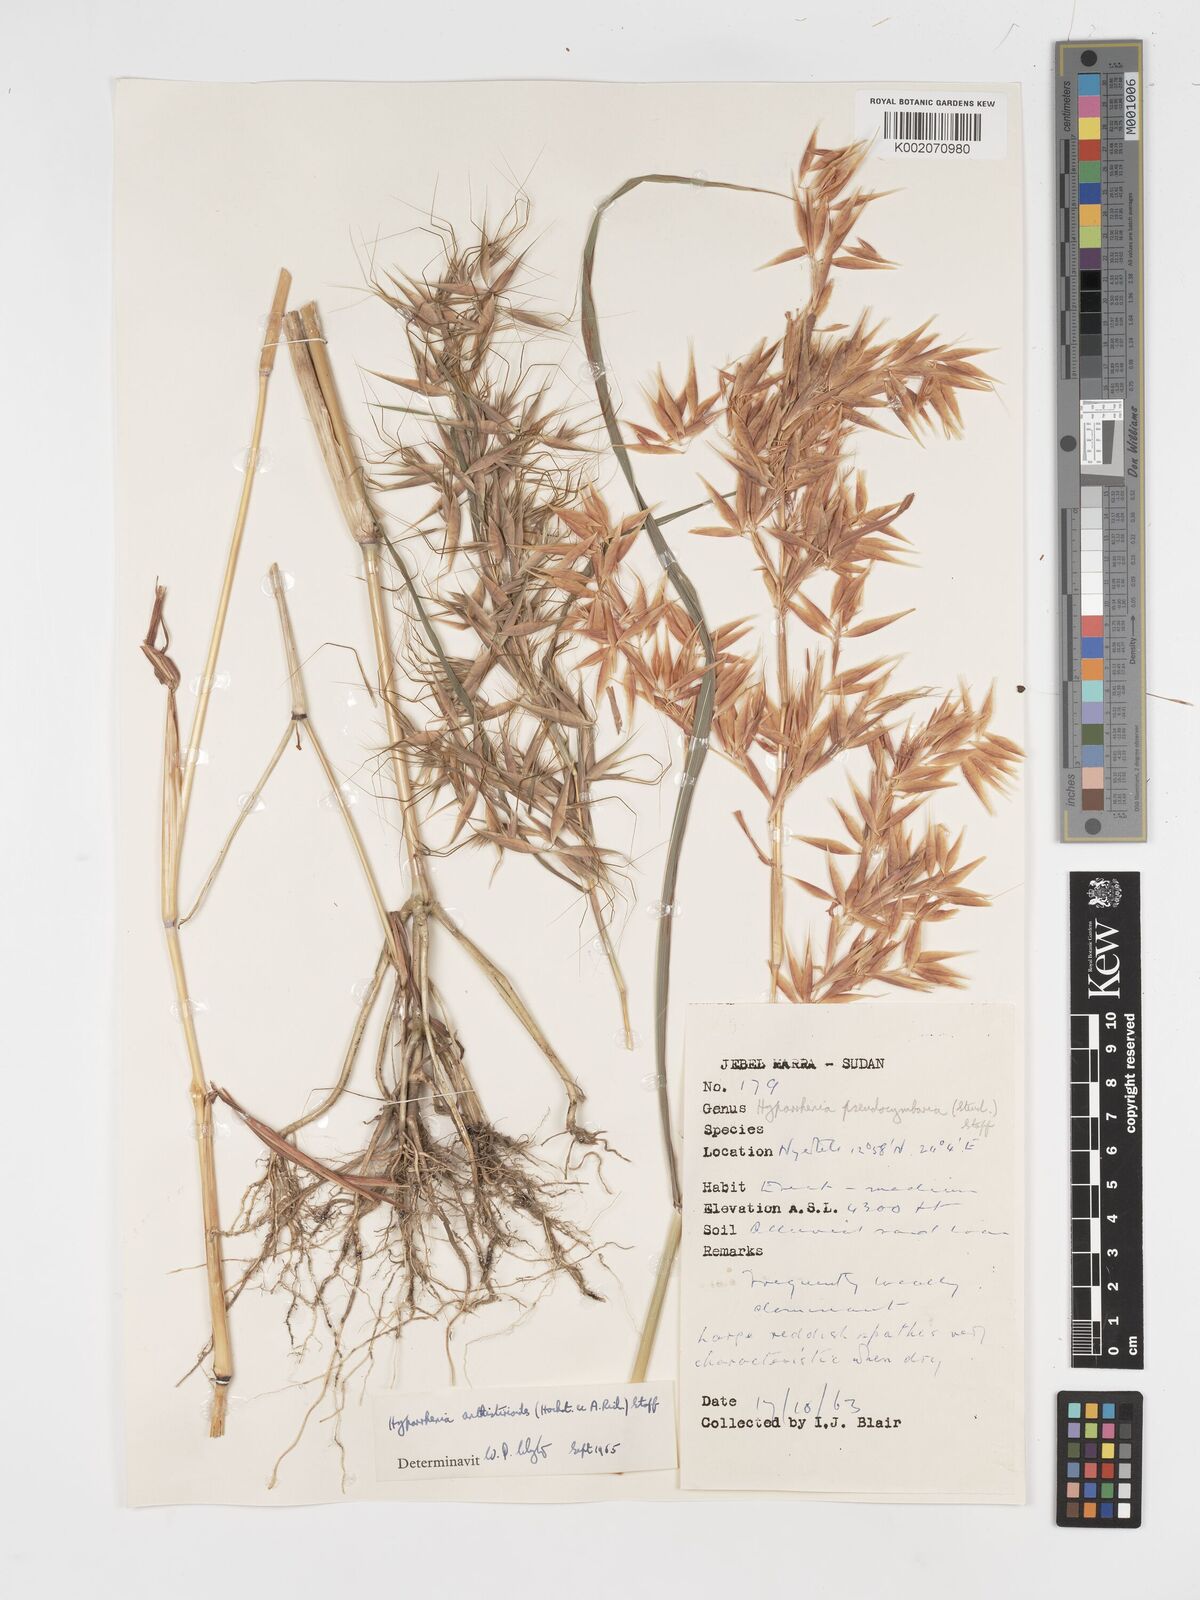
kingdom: Plantae
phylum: Tracheophyta
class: Liliopsida
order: Poales
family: Poaceae
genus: Hyparrhenia
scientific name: Hyparrhenia anthistirioides
